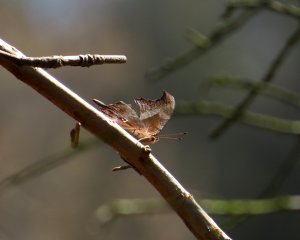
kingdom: Animalia
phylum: Arthropoda
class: Insecta
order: Lepidoptera
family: Nymphalidae
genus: Polygonia
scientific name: Polygonia interrogationis
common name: Question Mark
